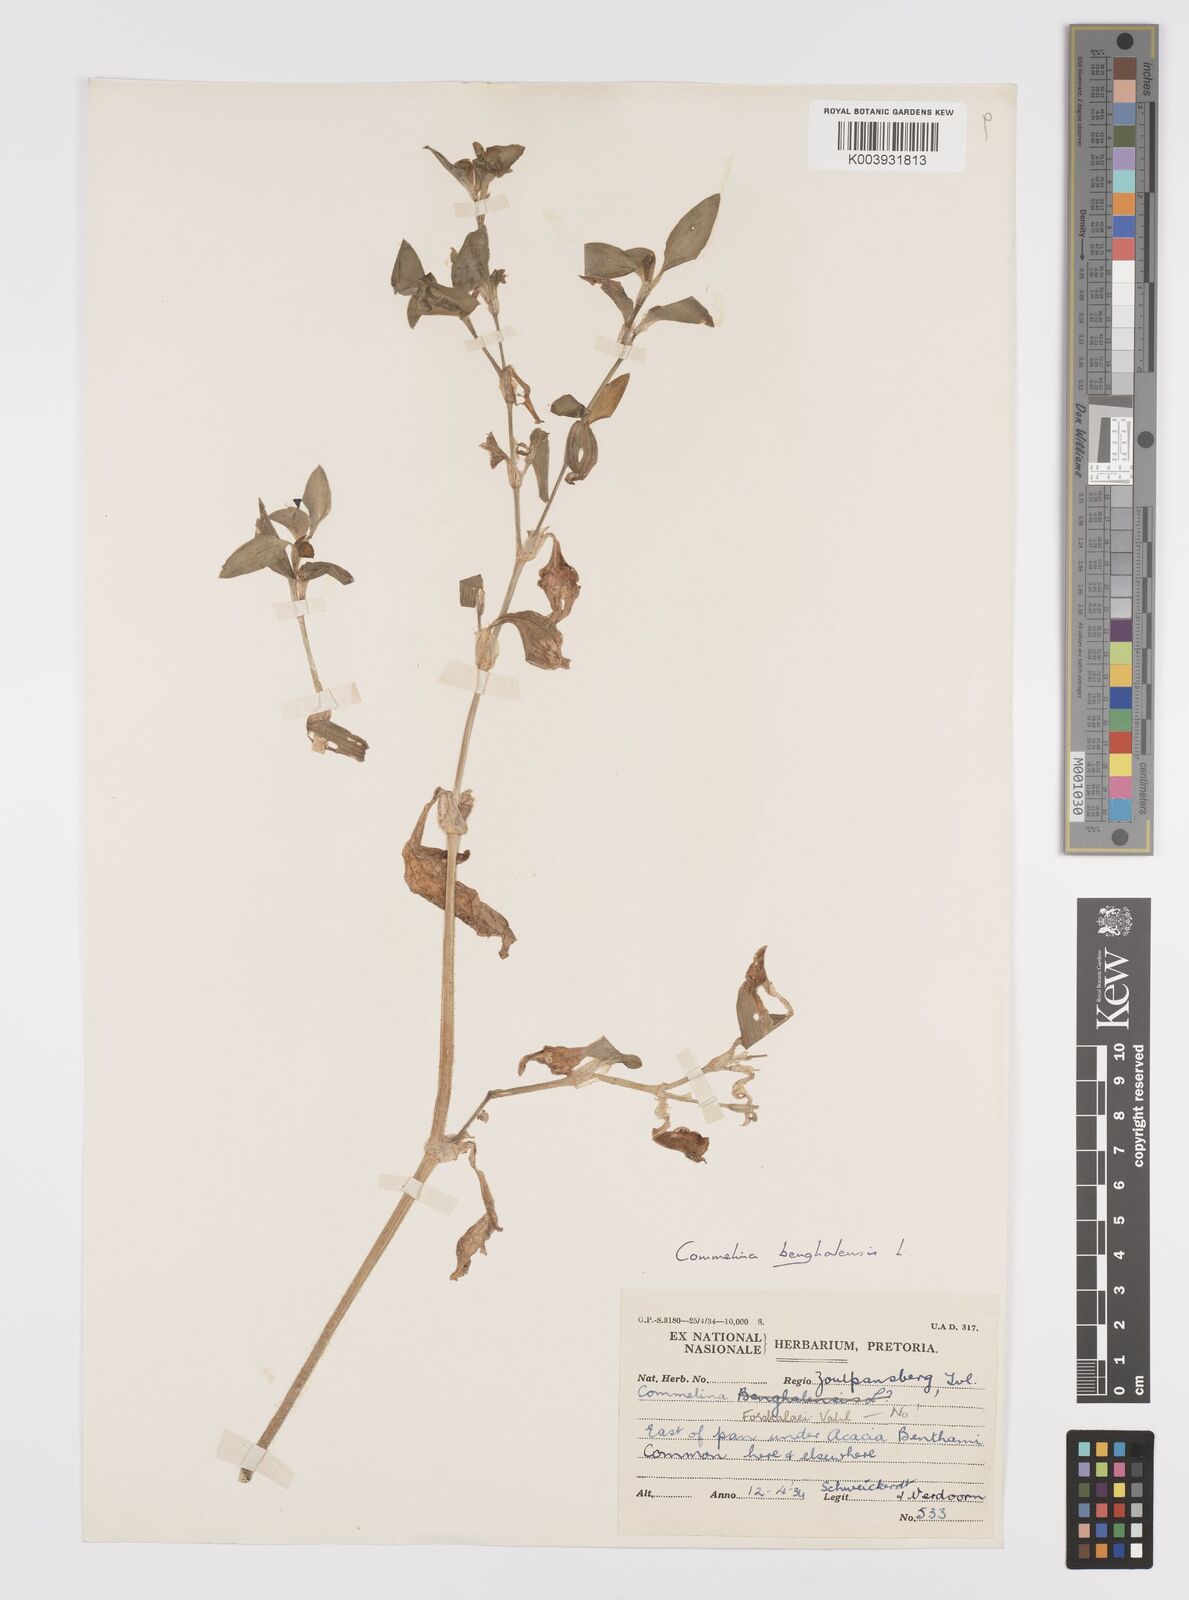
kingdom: Plantae
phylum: Tracheophyta
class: Liliopsida
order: Commelinales
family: Commelinaceae
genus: Commelina
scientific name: Commelina benghalensis
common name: Jio
